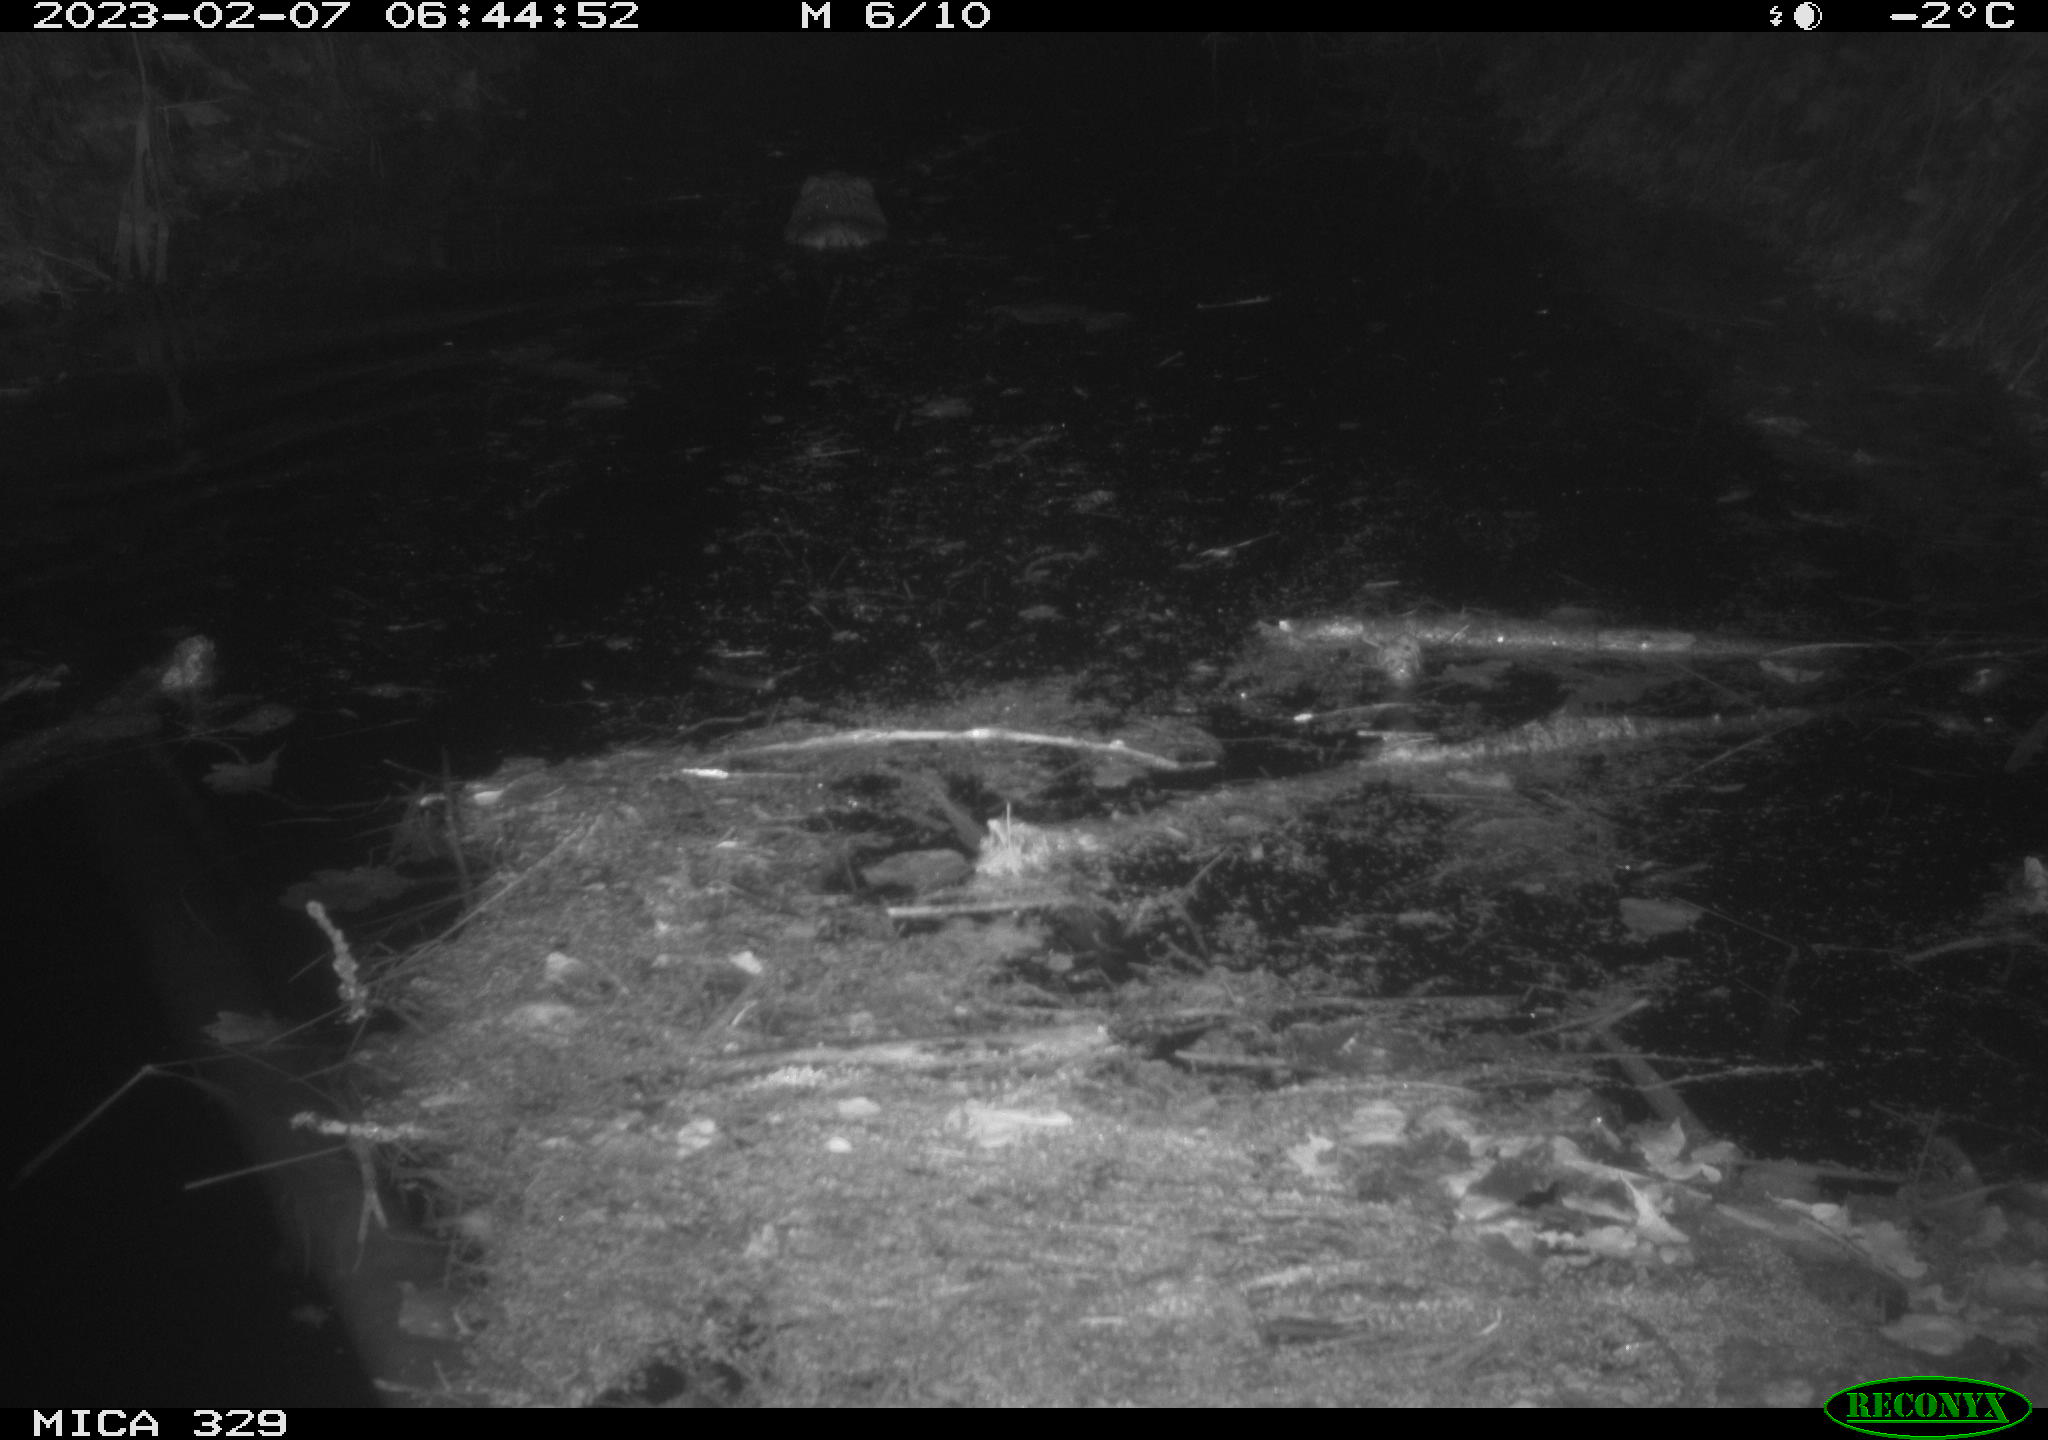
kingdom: Animalia
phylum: Chordata
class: Mammalia
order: Rodentia
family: Cricetidae
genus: Ondatra
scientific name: Ondatra zibethicus
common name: Muskrat
